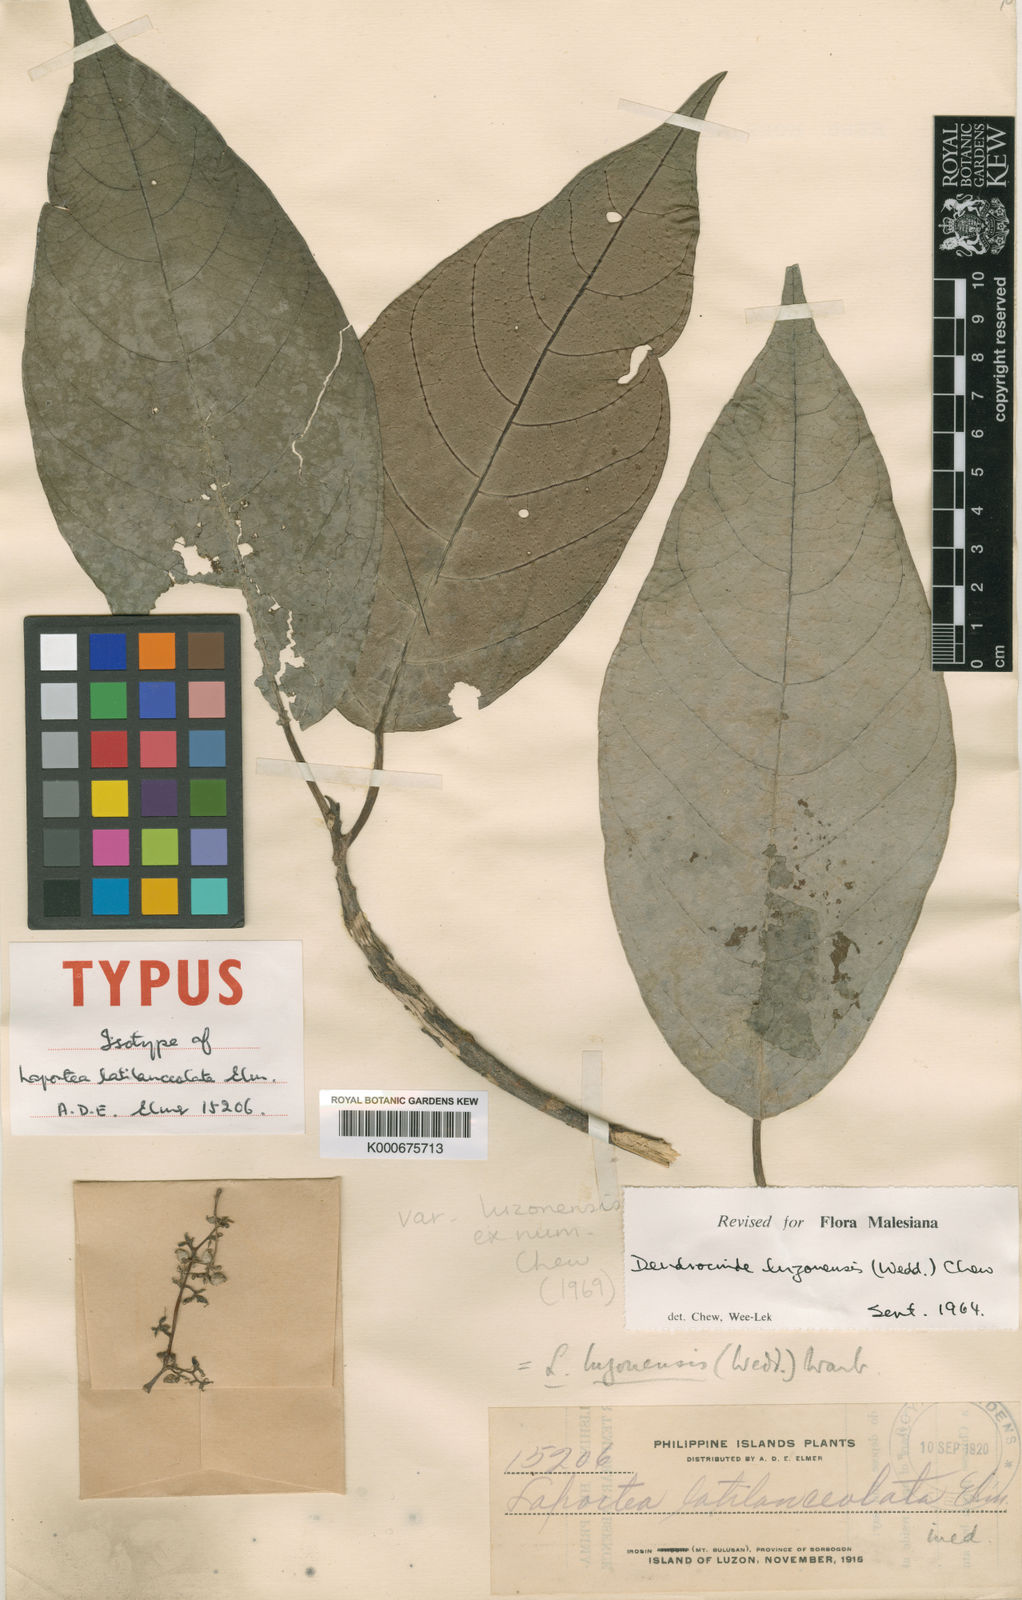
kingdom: Plantae
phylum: Tracheophyta
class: Magnoliopsida
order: Rosales
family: Urticaceae
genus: Dendrocnide
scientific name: Dendrocnide luzonensis
